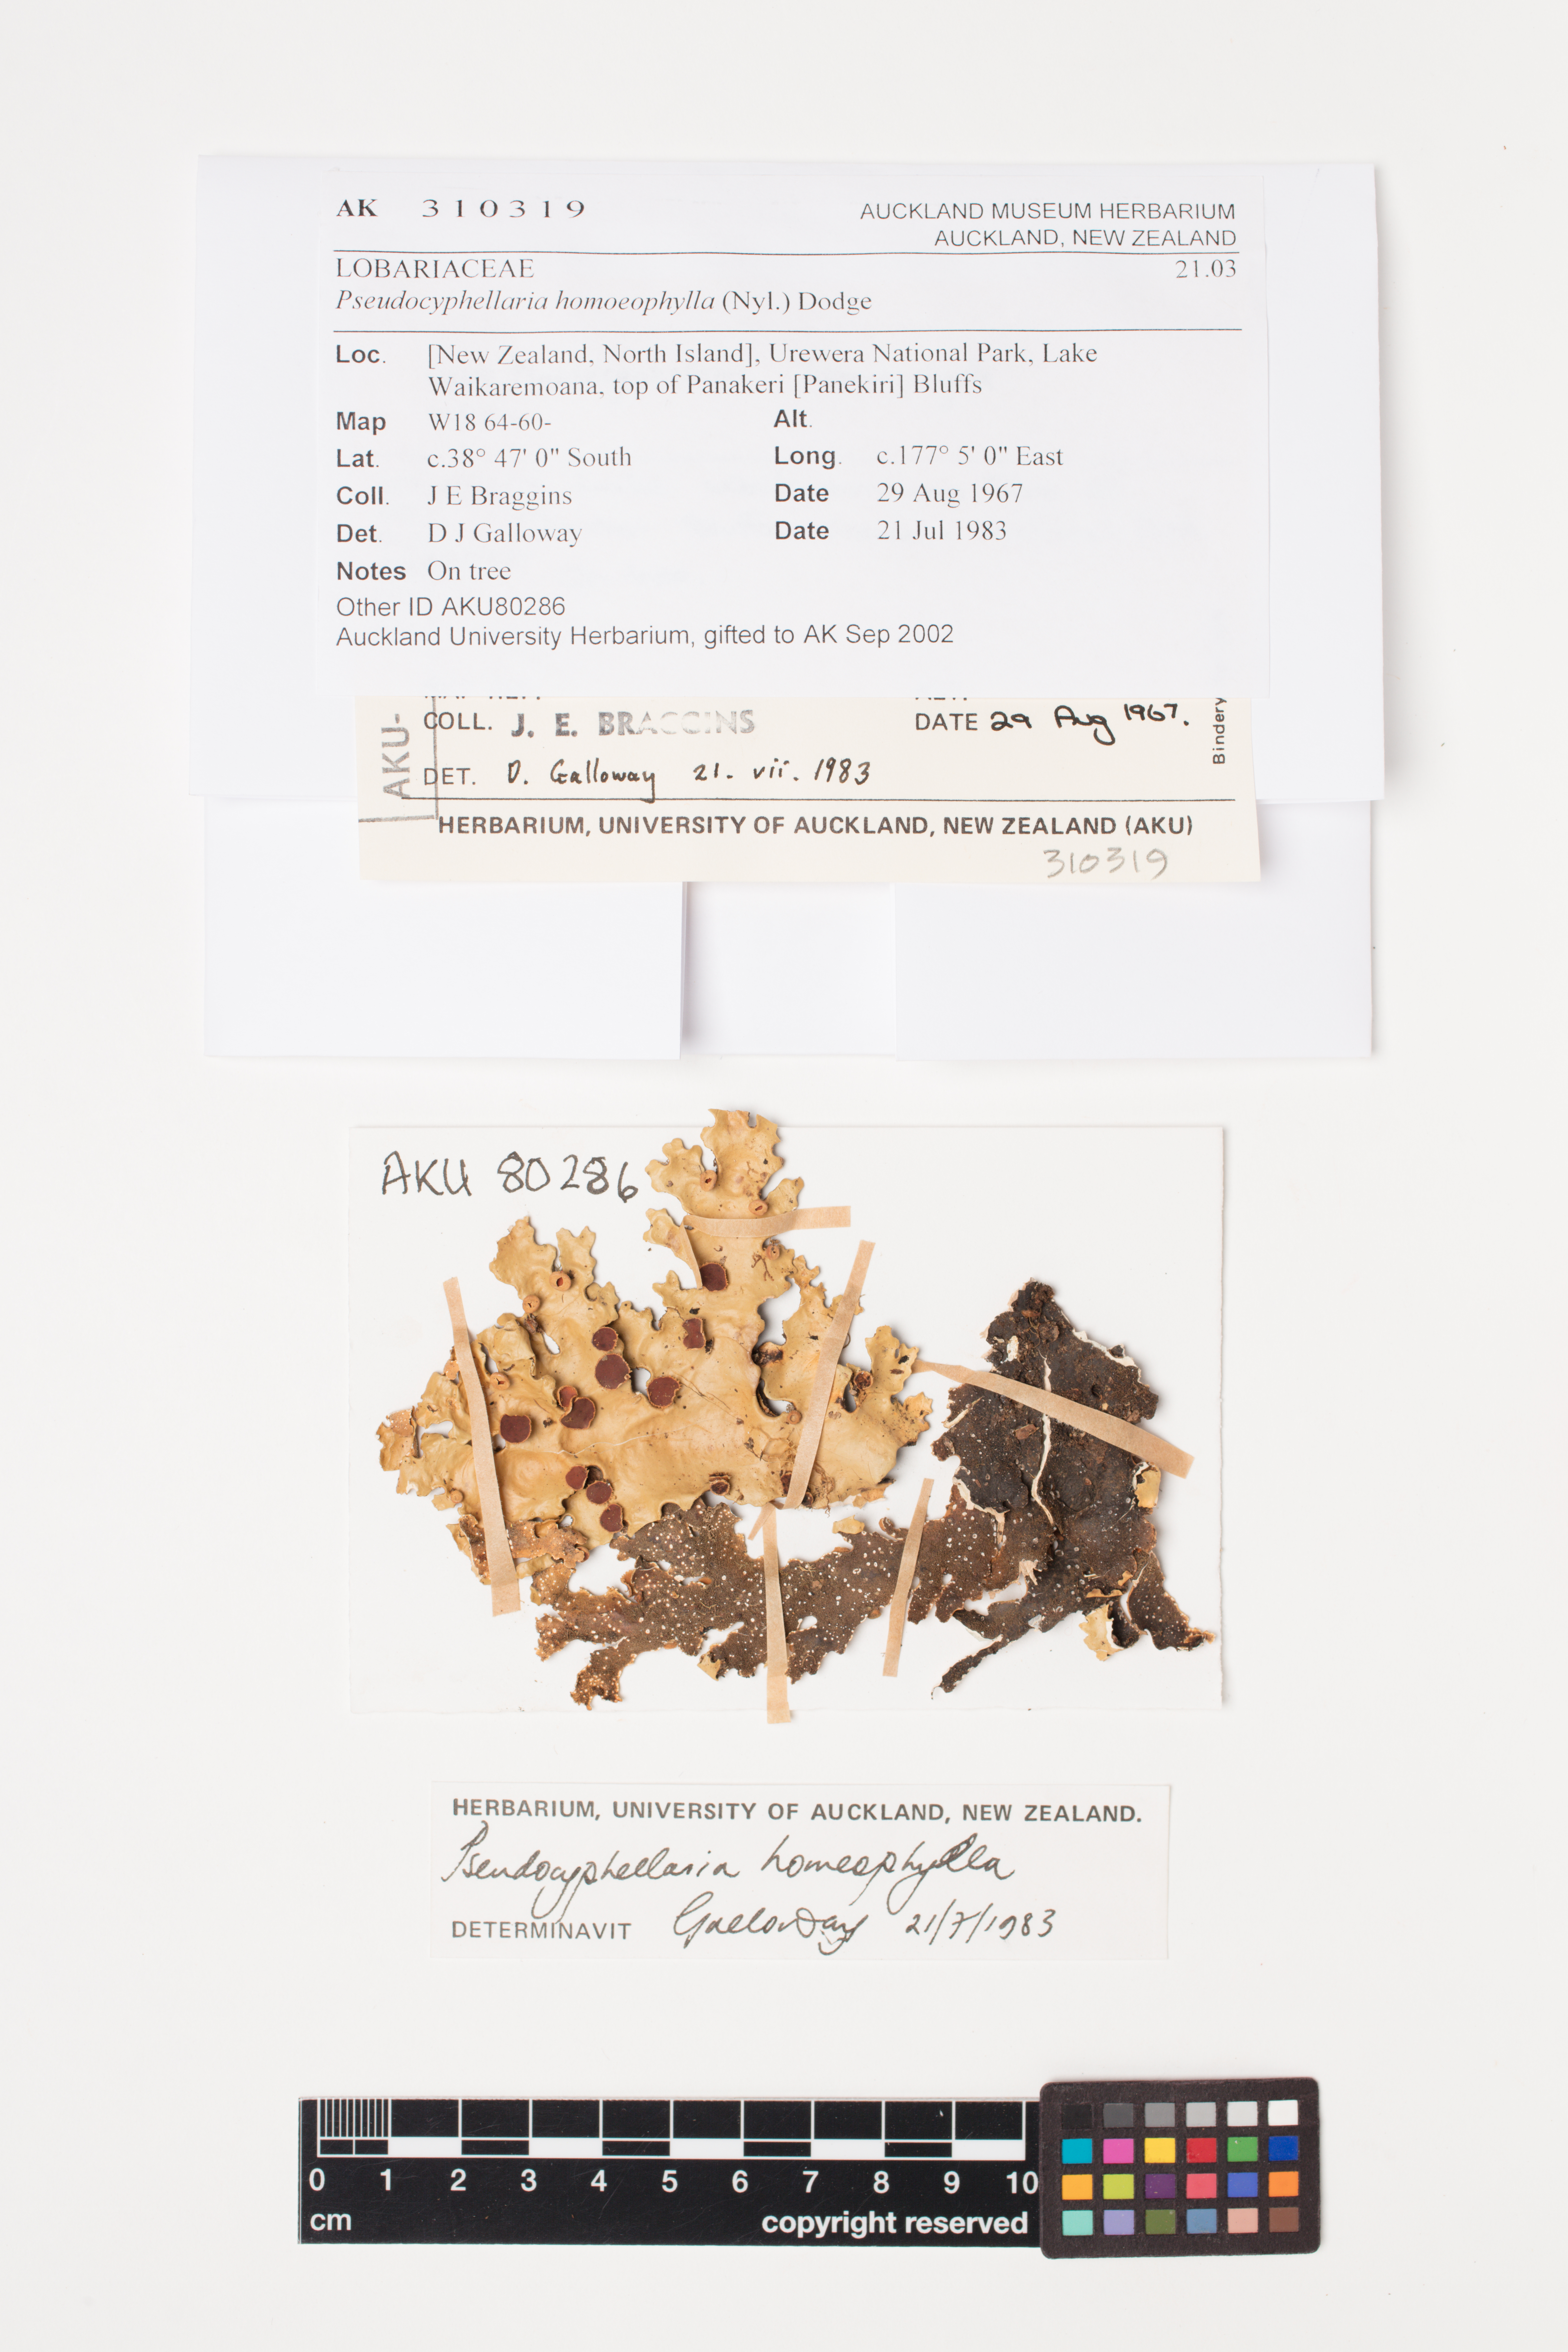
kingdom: Fungi
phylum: Ascomycota
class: Lecanoromycetes
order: Peltigerales
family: Lobariaceae
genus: Pseudocyphellaria
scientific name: Pseudocyphellaria homeophylla
